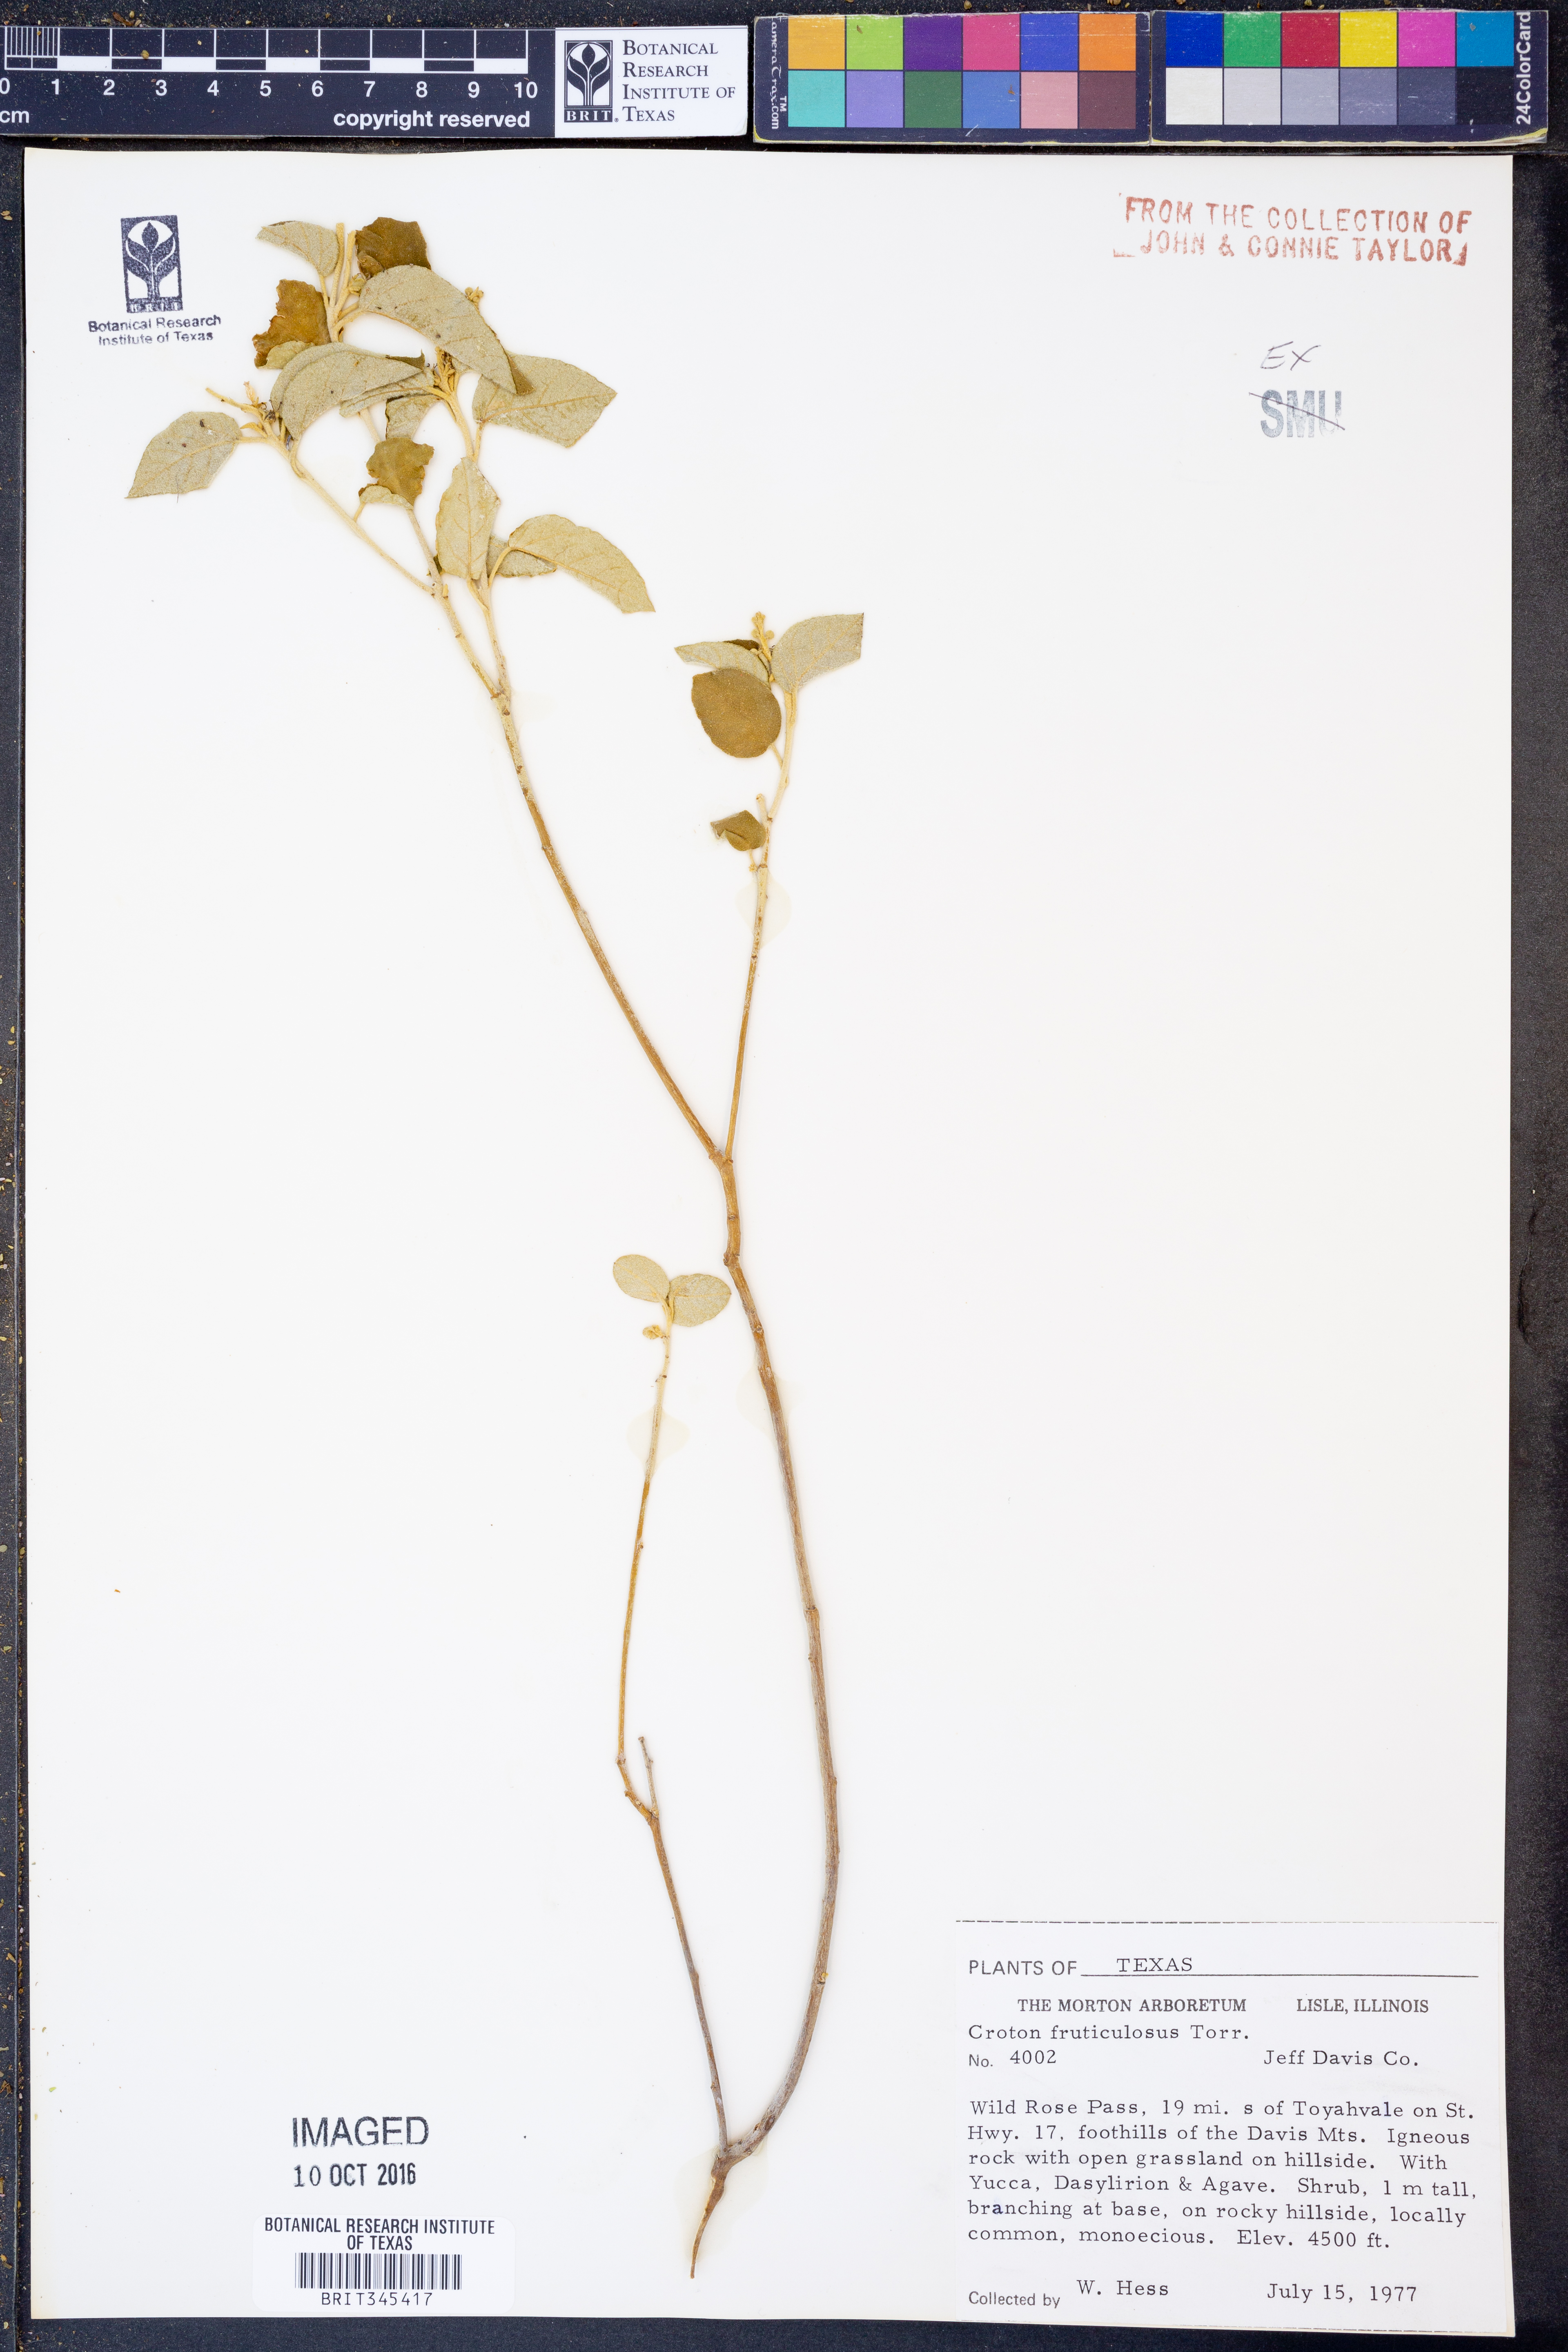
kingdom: Plantae
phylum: Tracheophyta
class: Magnoliopsida
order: Malpighiales
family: Euphorbiaceae
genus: Croton
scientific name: Croton fruticulosus
